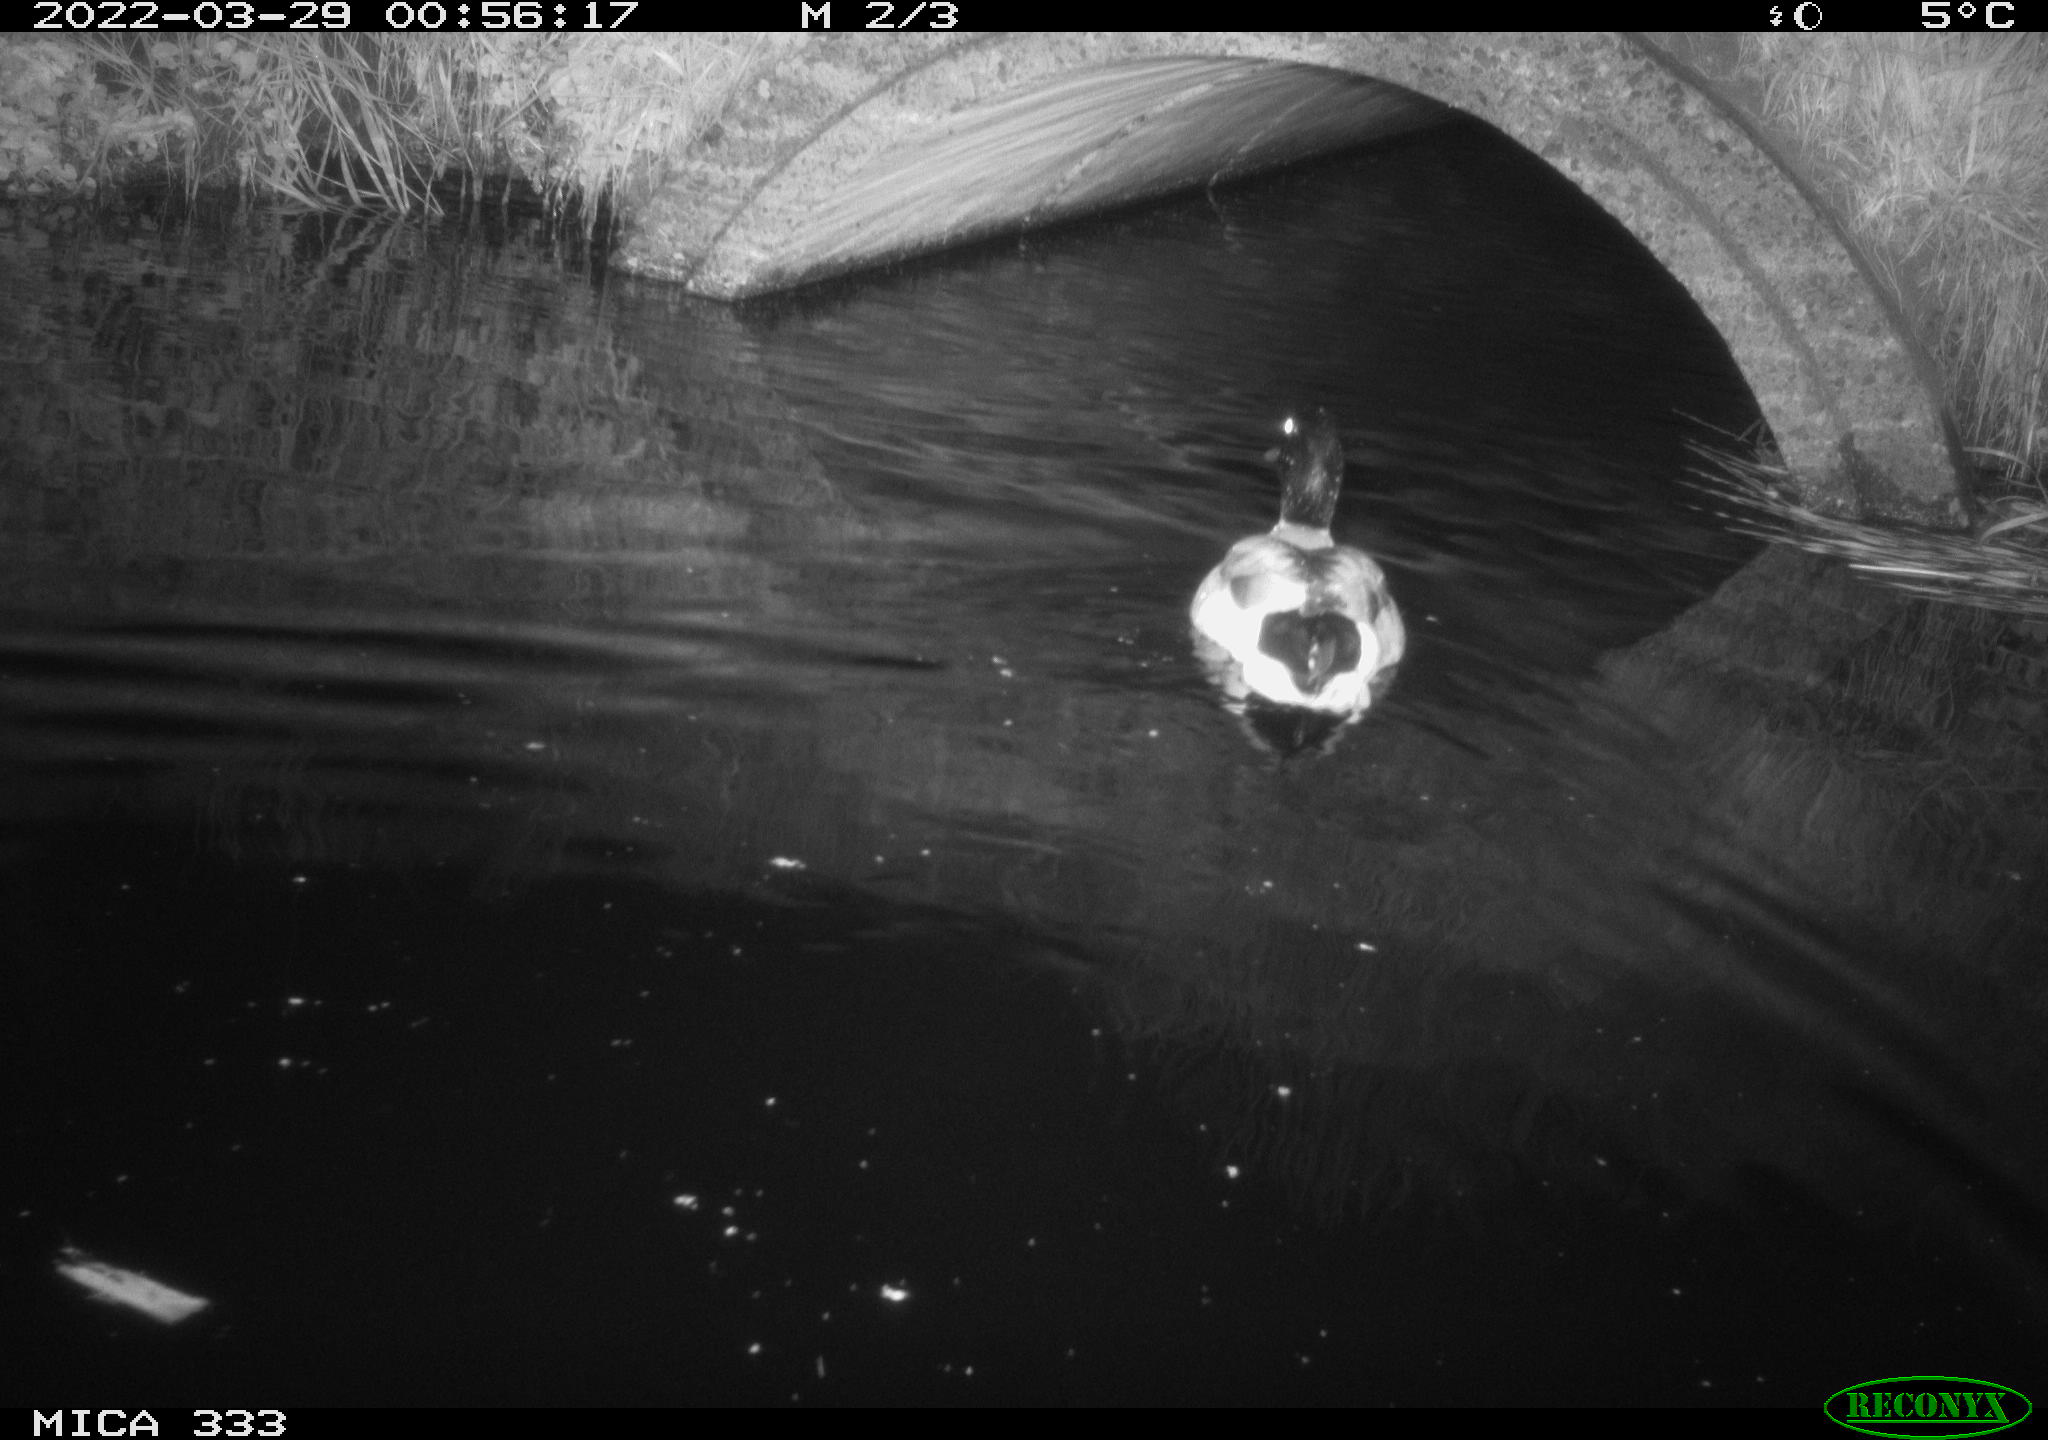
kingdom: Animalia
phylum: Chordata
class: Aves
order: Anseriformes
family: Anatidae
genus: Anas
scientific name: Anas platyrhynchos
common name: Mallard
